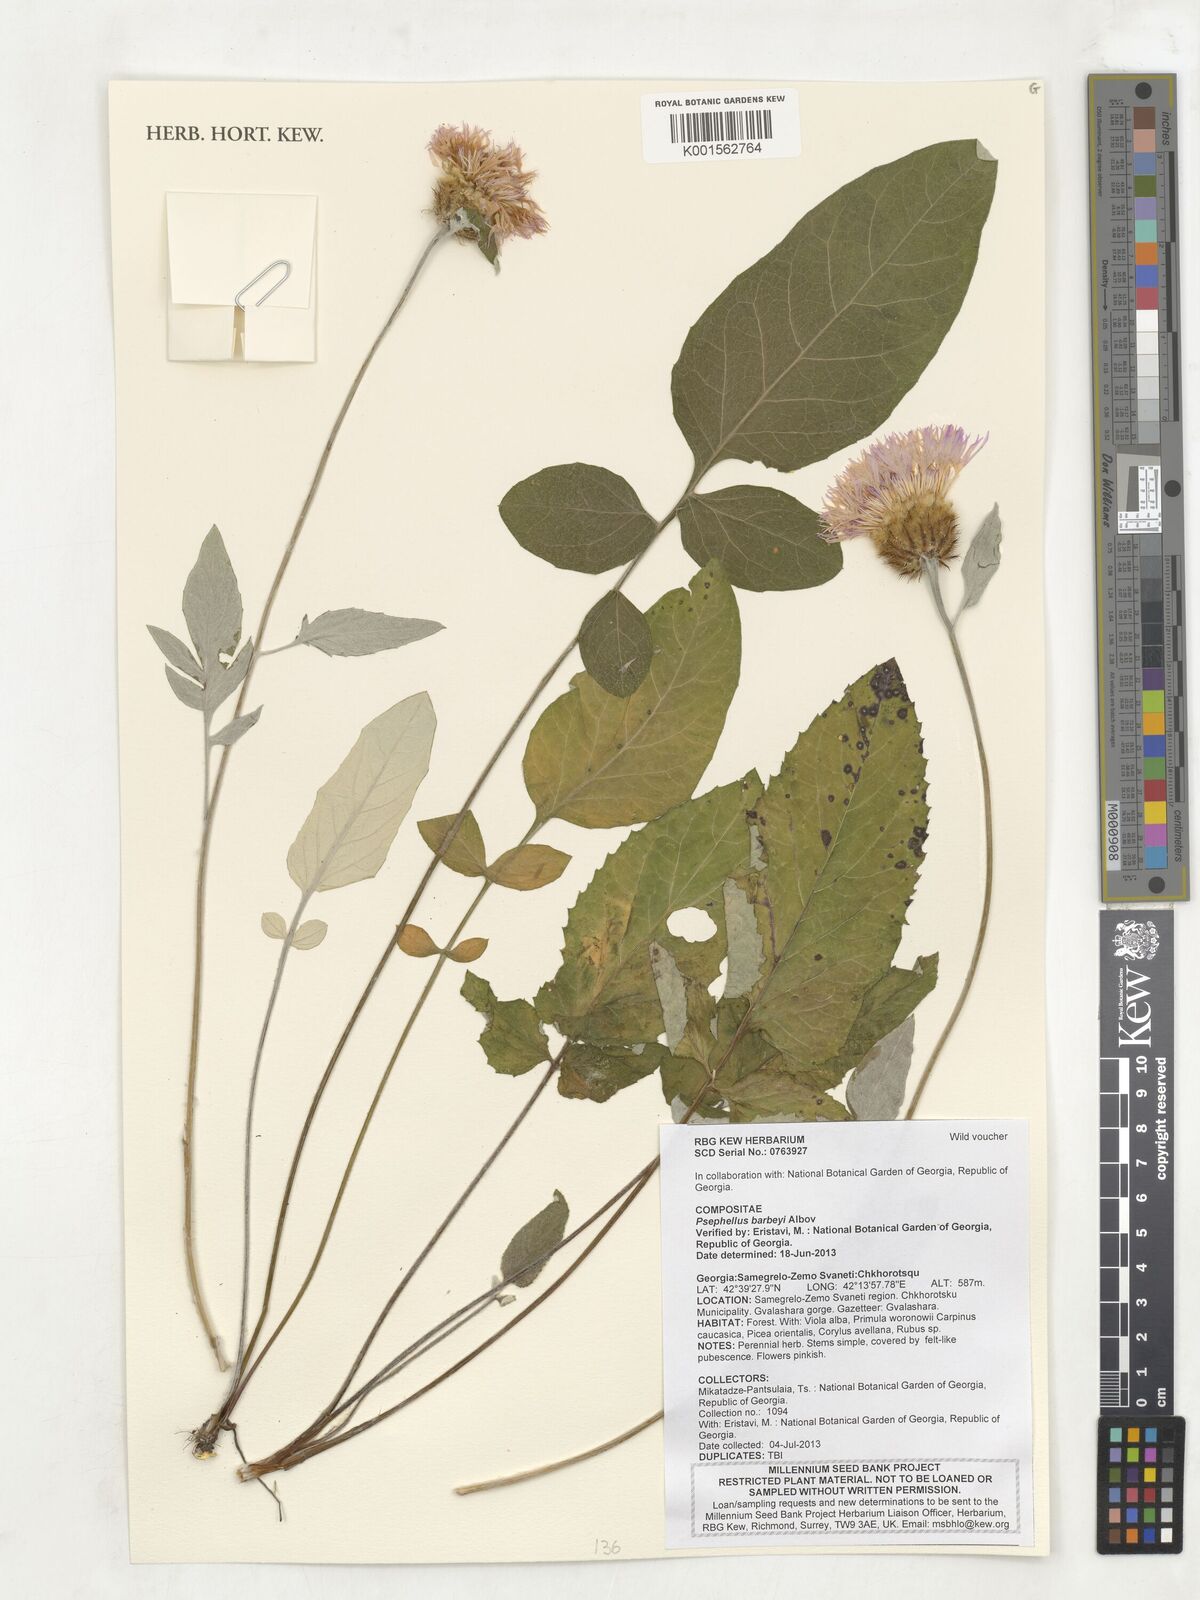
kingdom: Plantae
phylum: Tracheophyta
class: Magnoliopsida
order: Asterales
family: Asteraceae
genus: Psephellus
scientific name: Psephellus barbeyi
